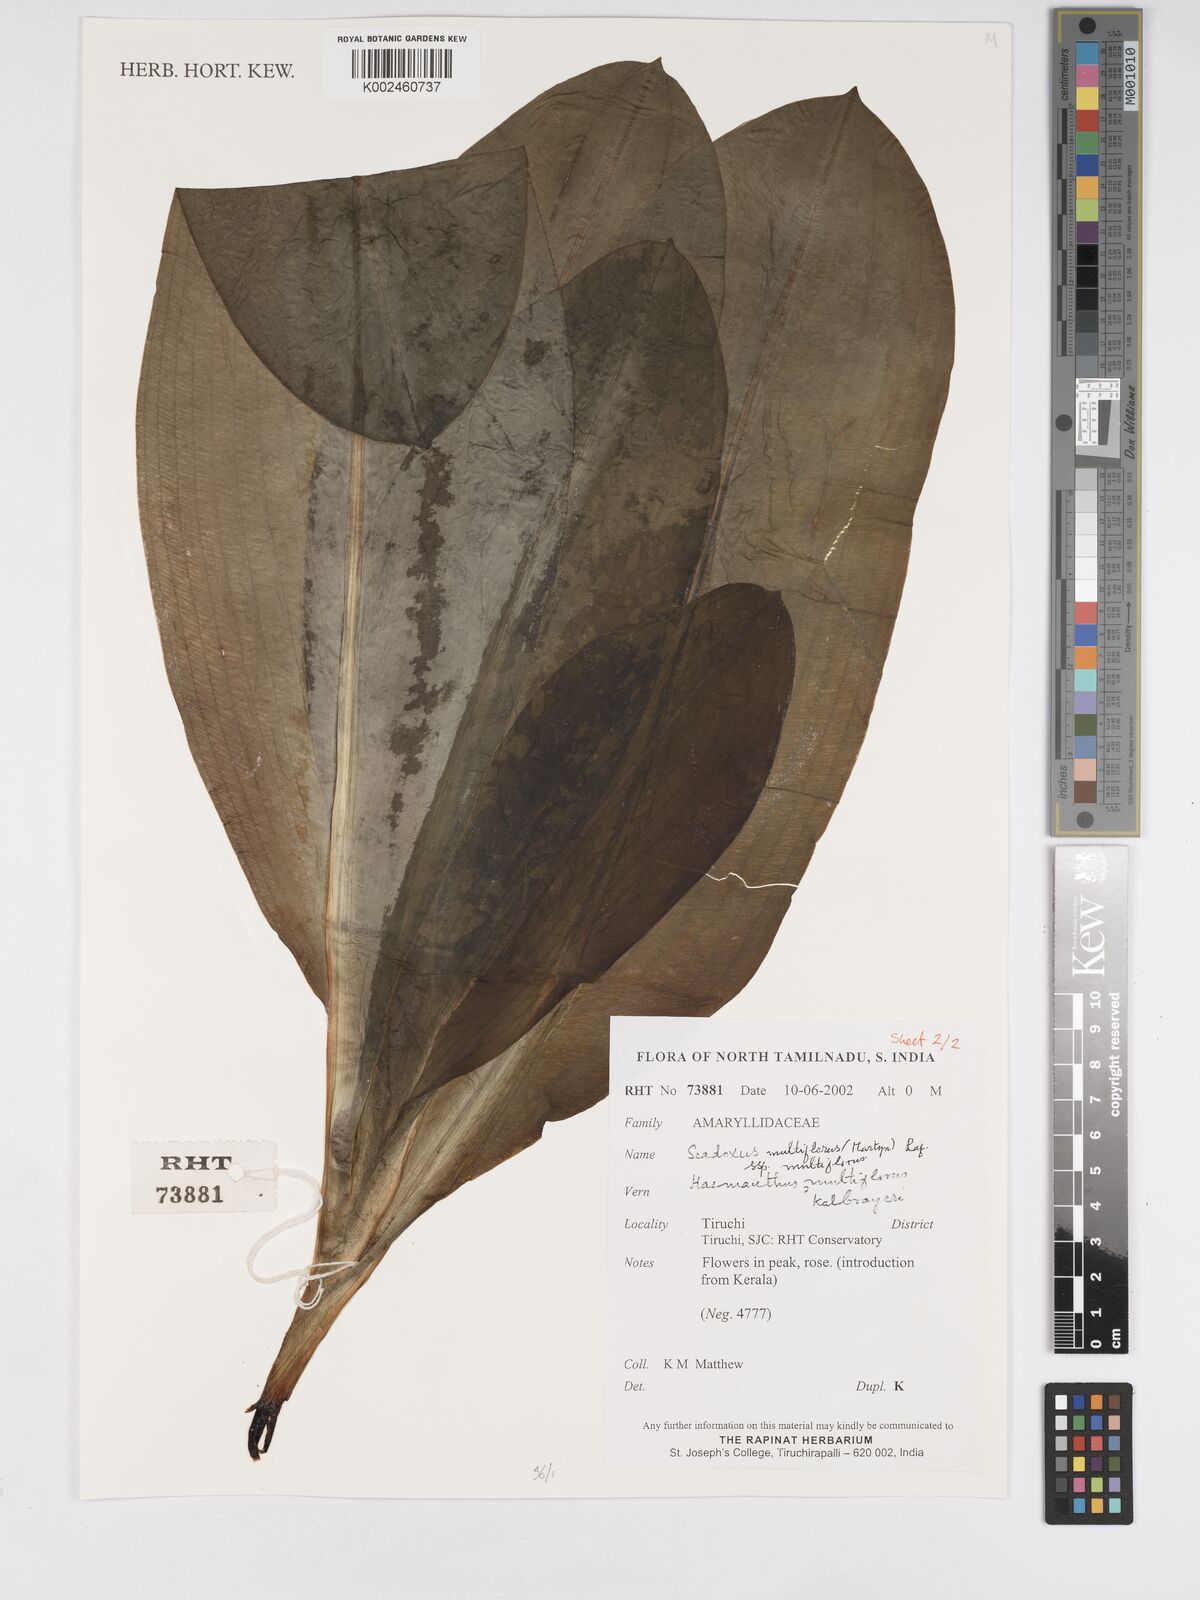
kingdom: Plantae
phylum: Tracheophyta
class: Liliopsida
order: Asparagales
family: Amaryllidaceae
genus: Scadoxus
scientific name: Scadoxus multiflorus
